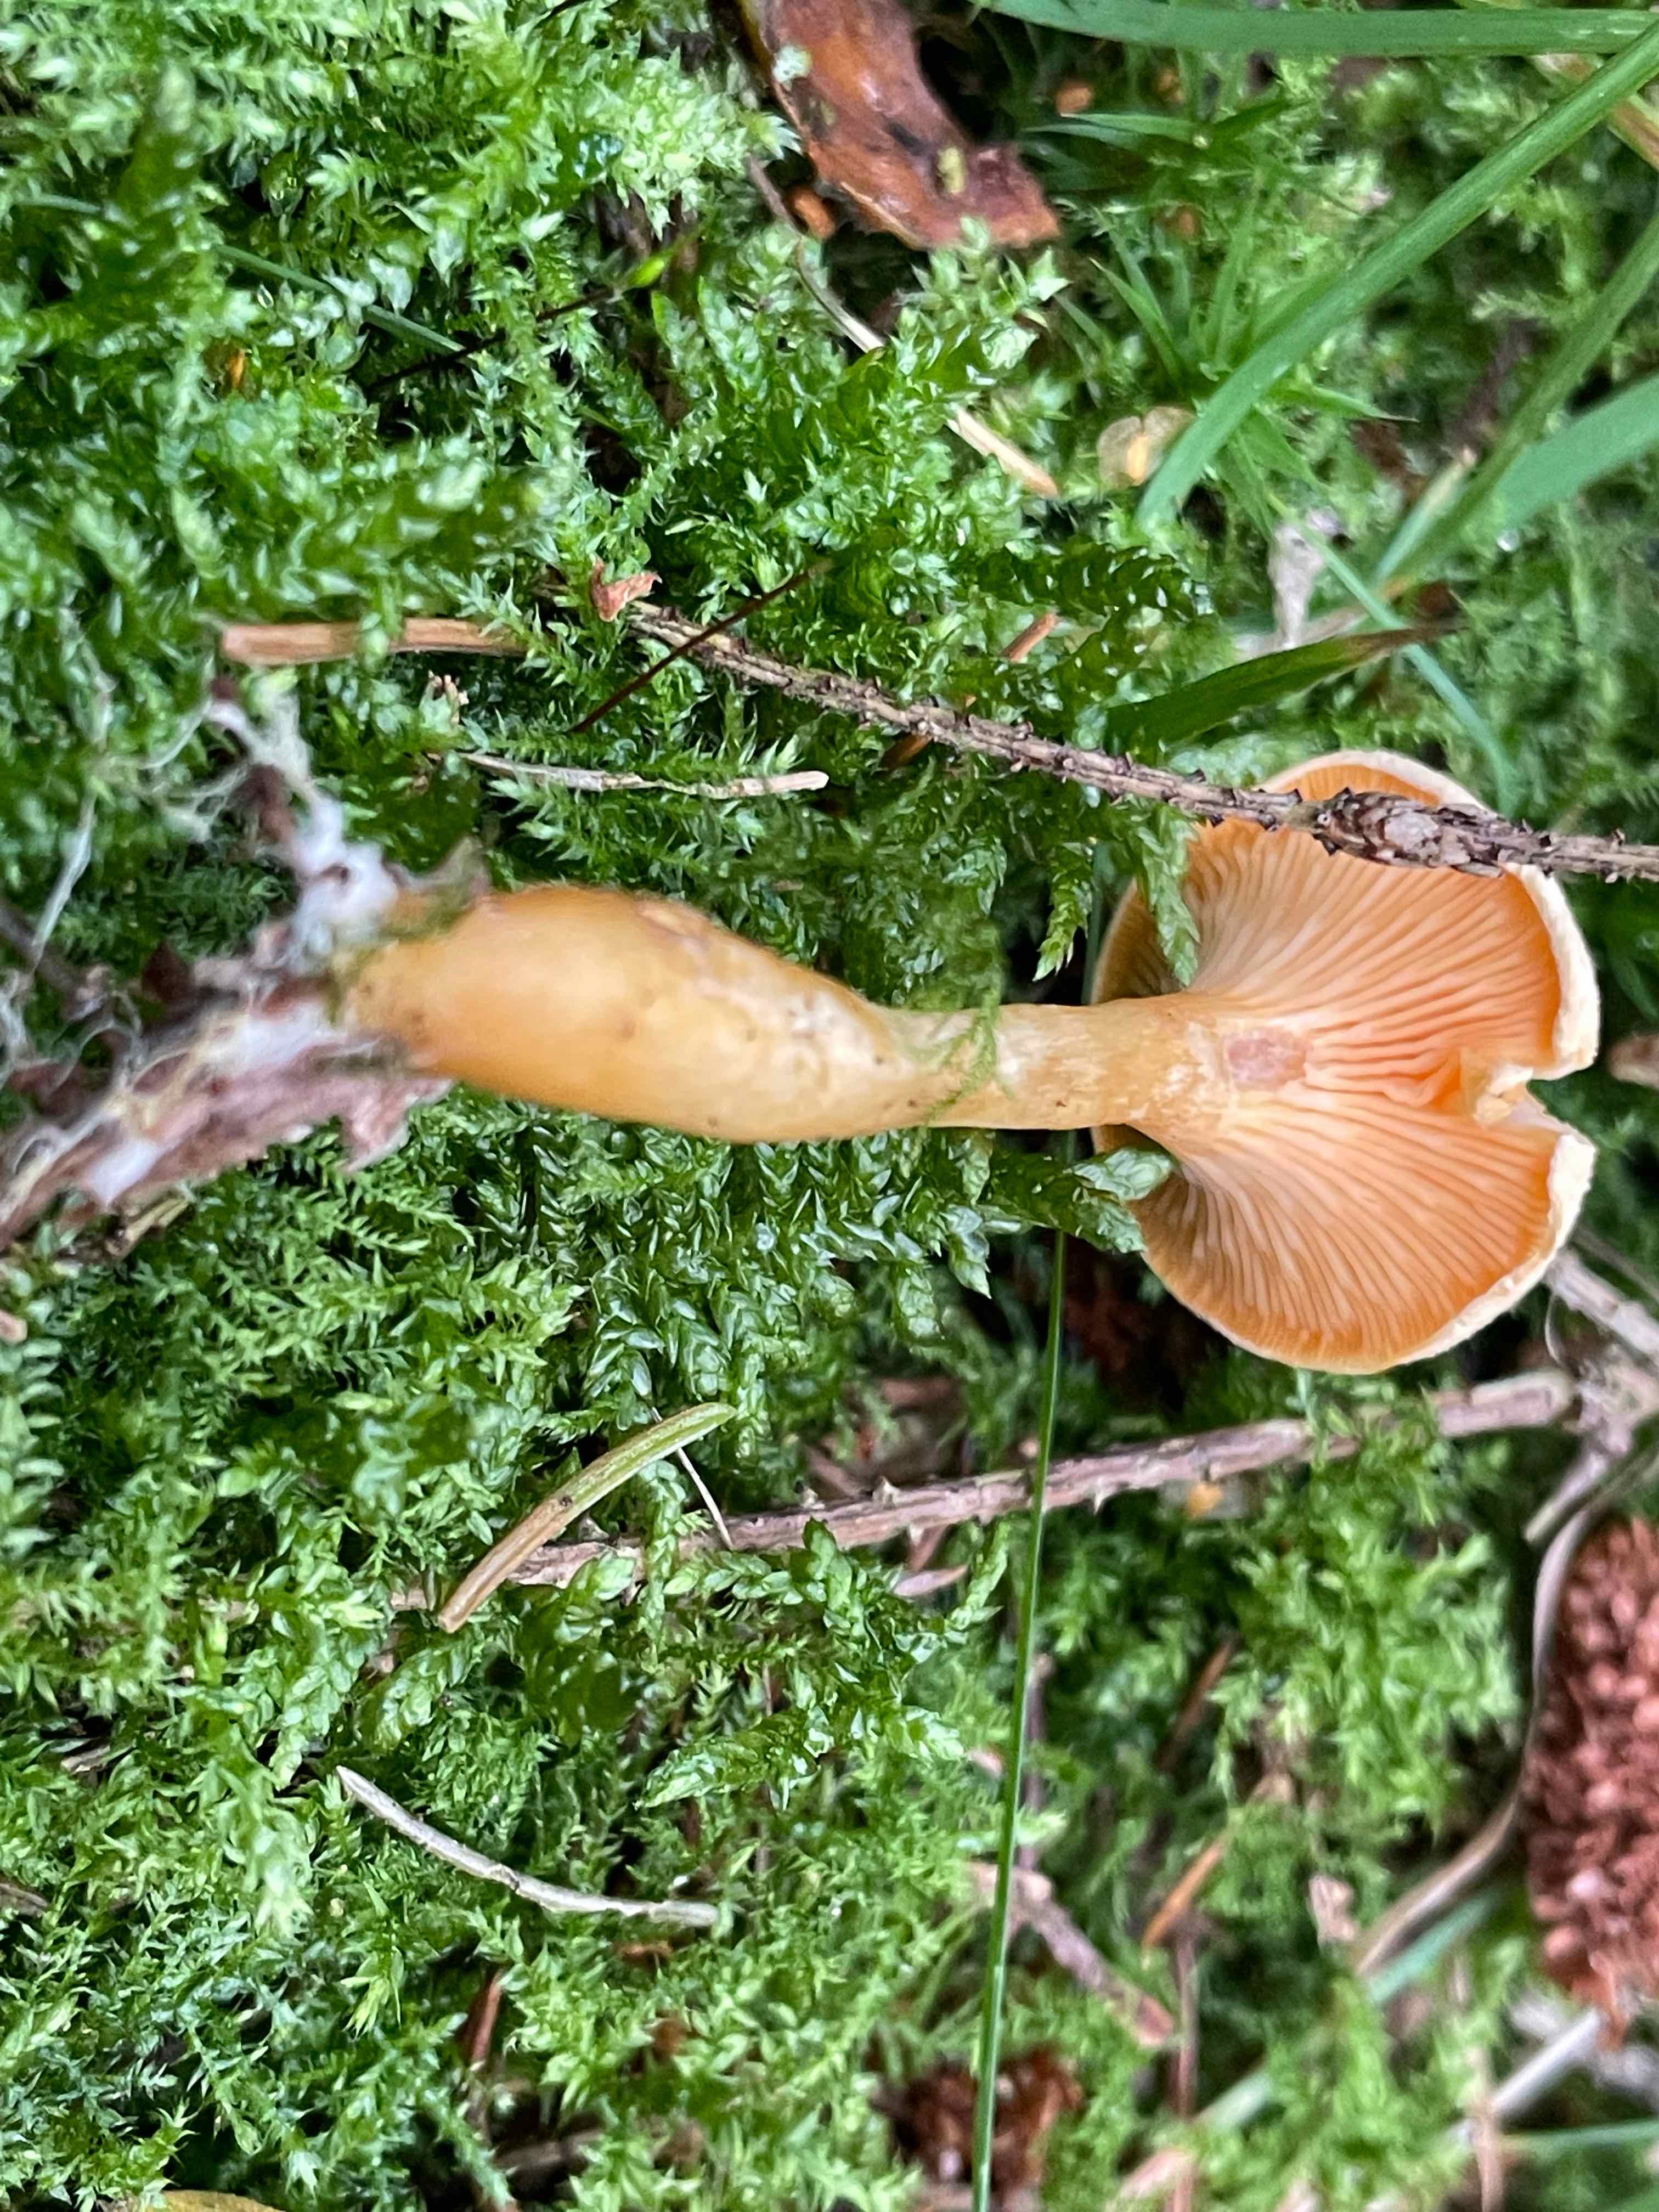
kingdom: Fungi
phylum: Basidiomycota
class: Agaricomycetes
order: Boletales
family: Hygrophoropsidaceae
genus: Hygrophoropsis
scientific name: Hygrophoropsis aurantiaca
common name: almindelig orangekantarel
